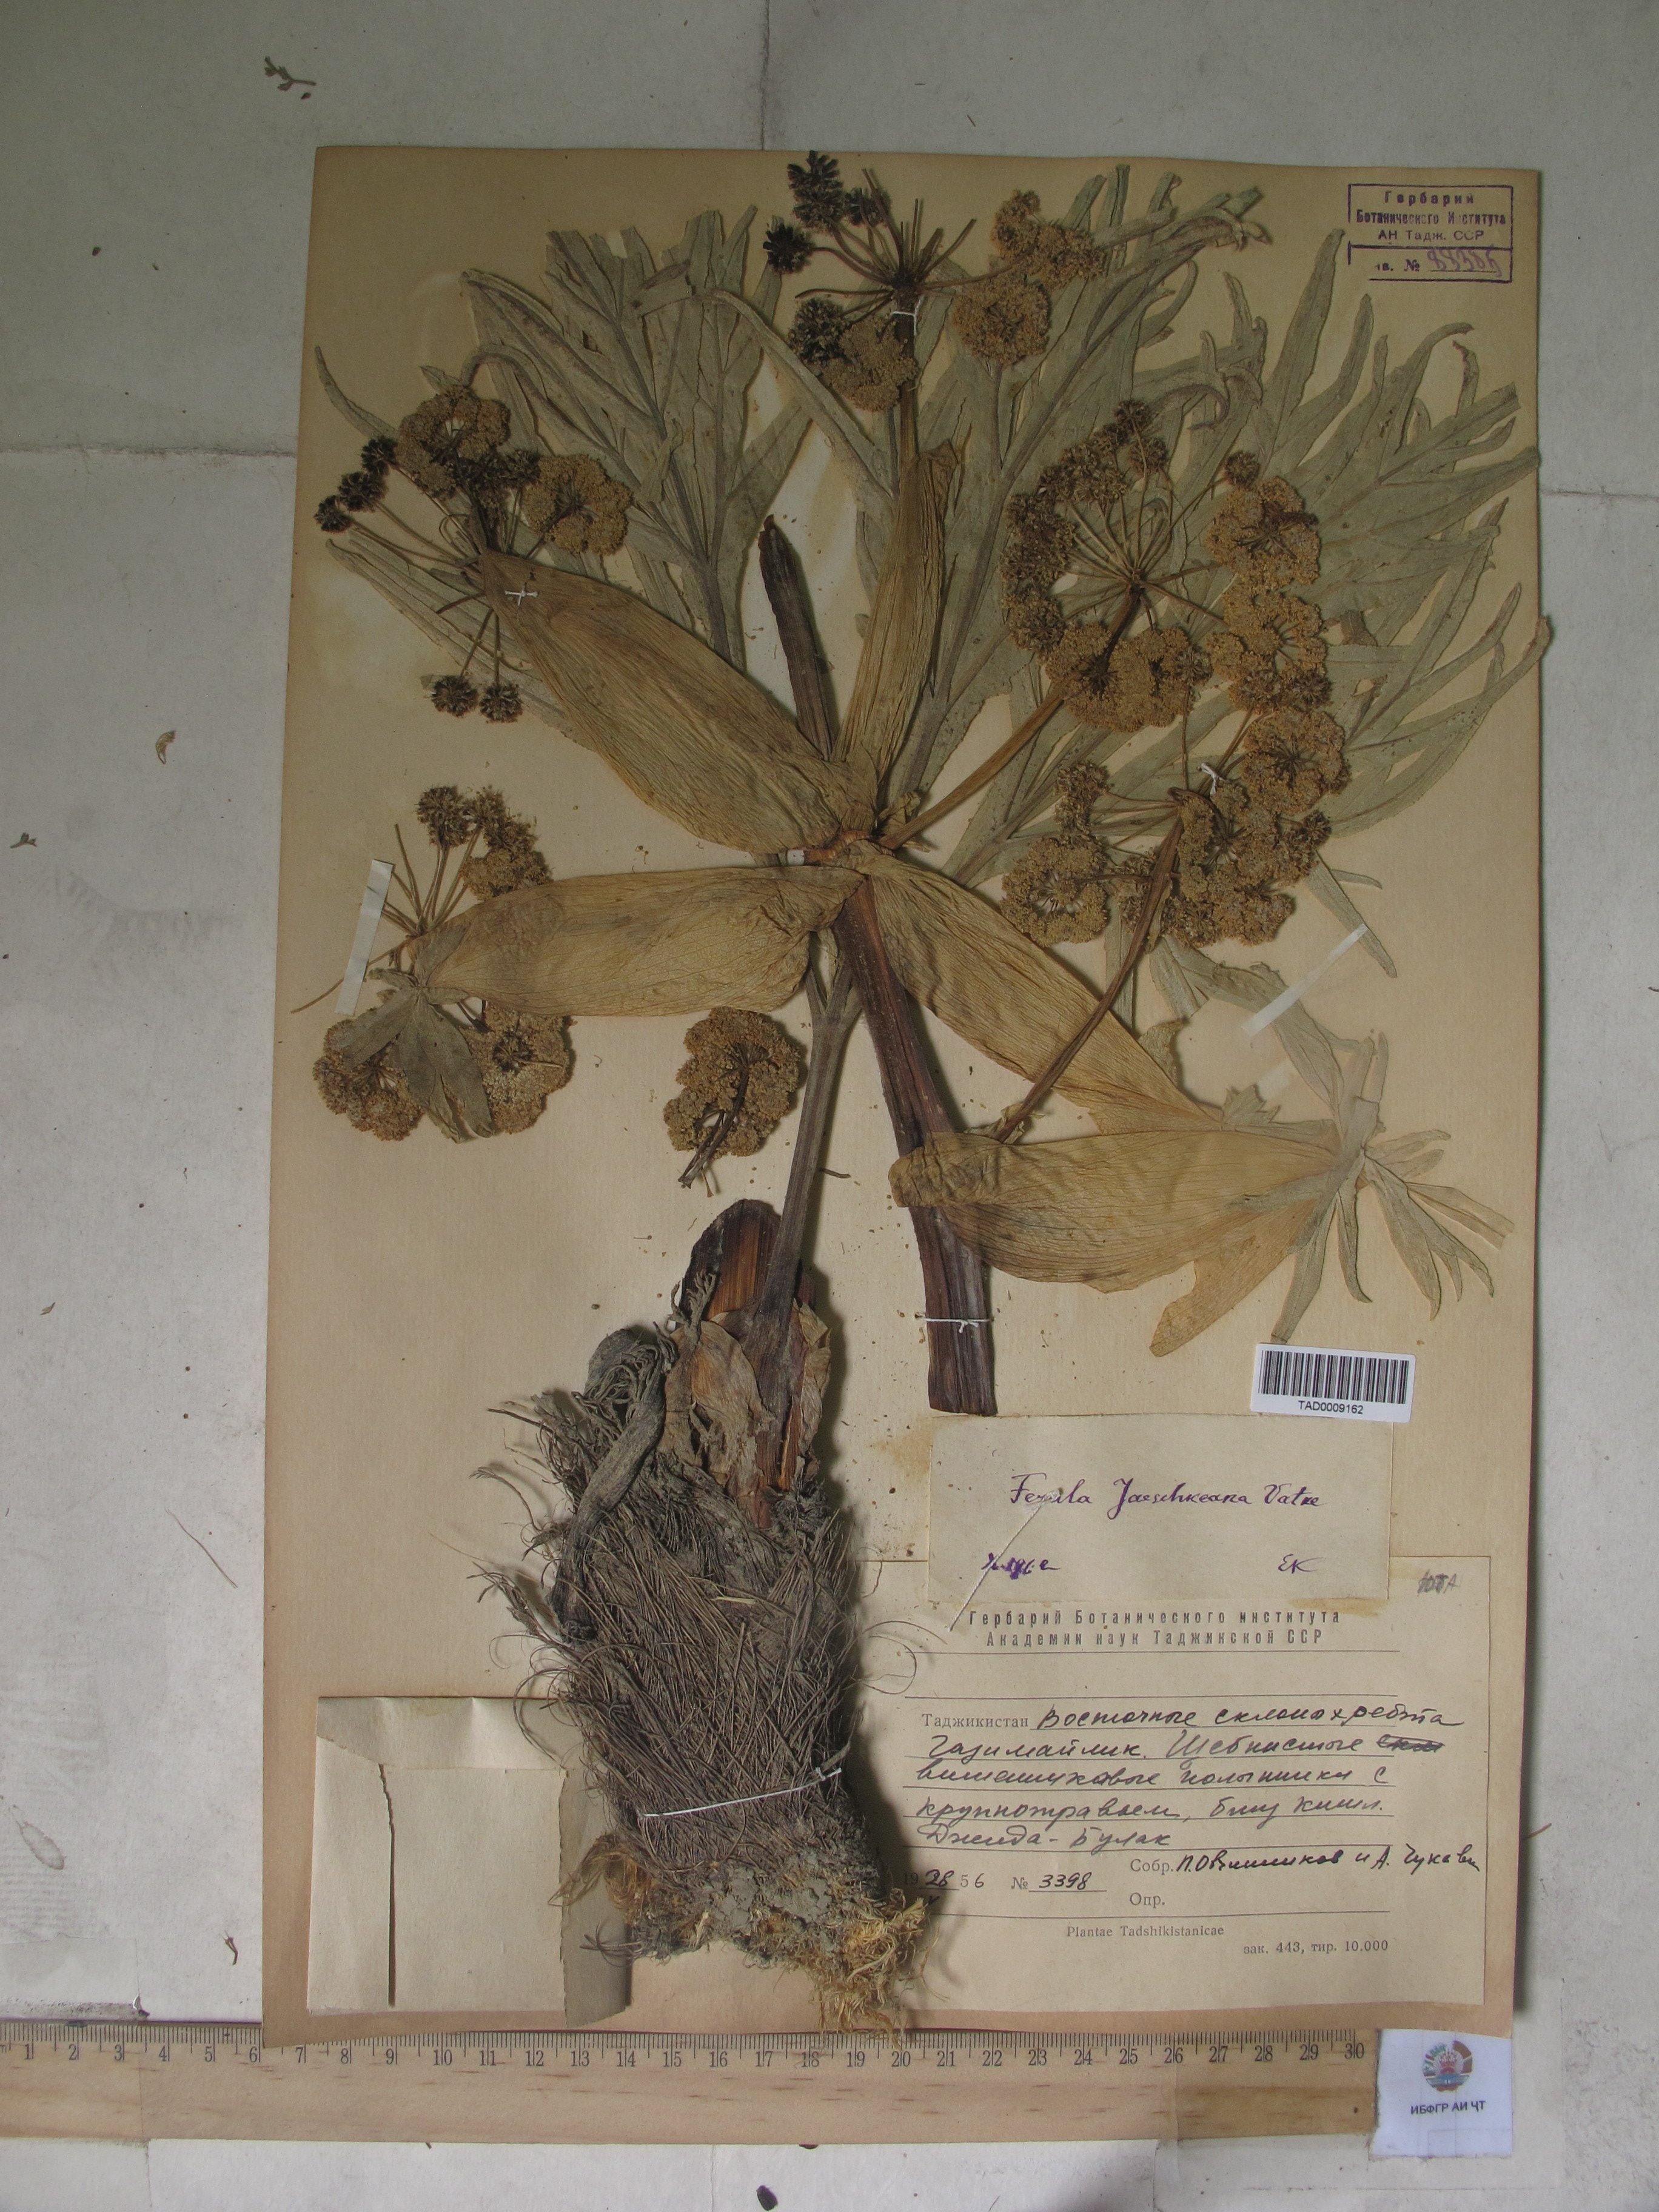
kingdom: Plantae
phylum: Tracheophyta
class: Magnoliopsida
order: Apiales
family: Apiaceae
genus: Ferula
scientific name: Ferula jaeschkeana
